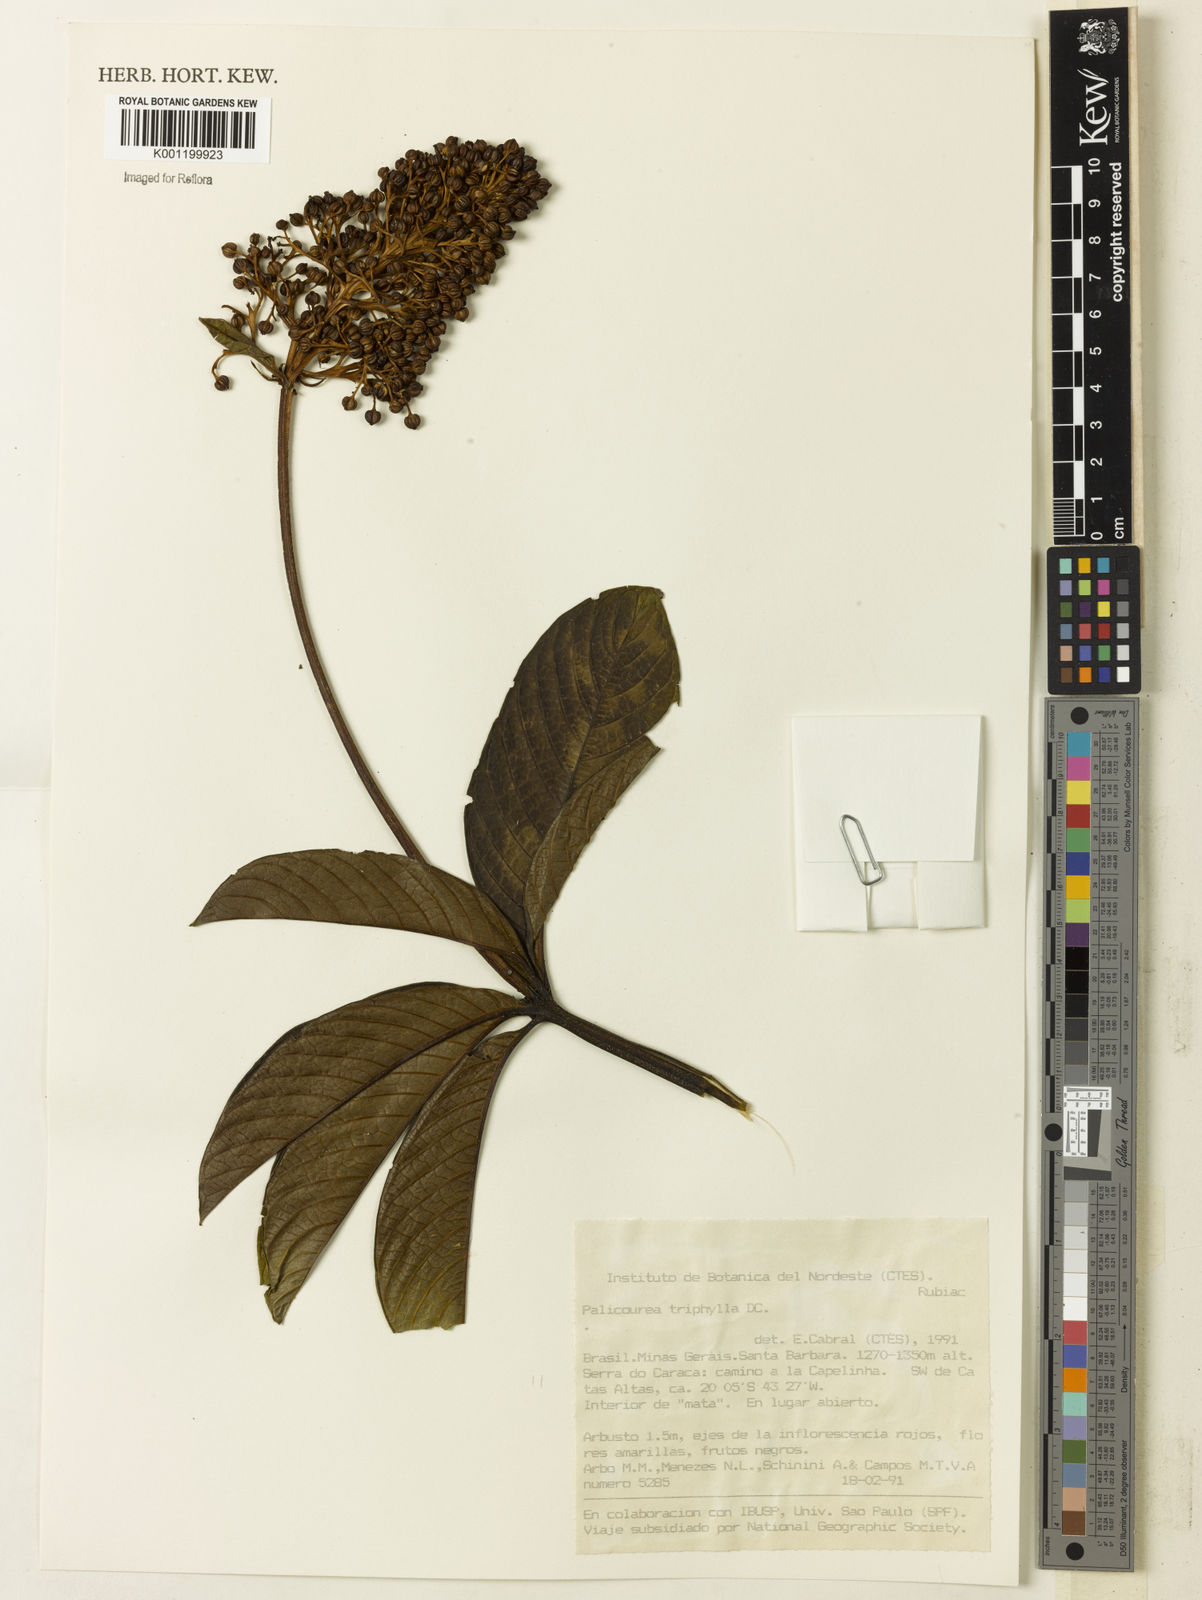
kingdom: Plantae
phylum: Tracheophyta
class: Magnoliopsida
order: Gentianales
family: Rubiaceae
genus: Palicourea
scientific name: Palicourea triphylla
